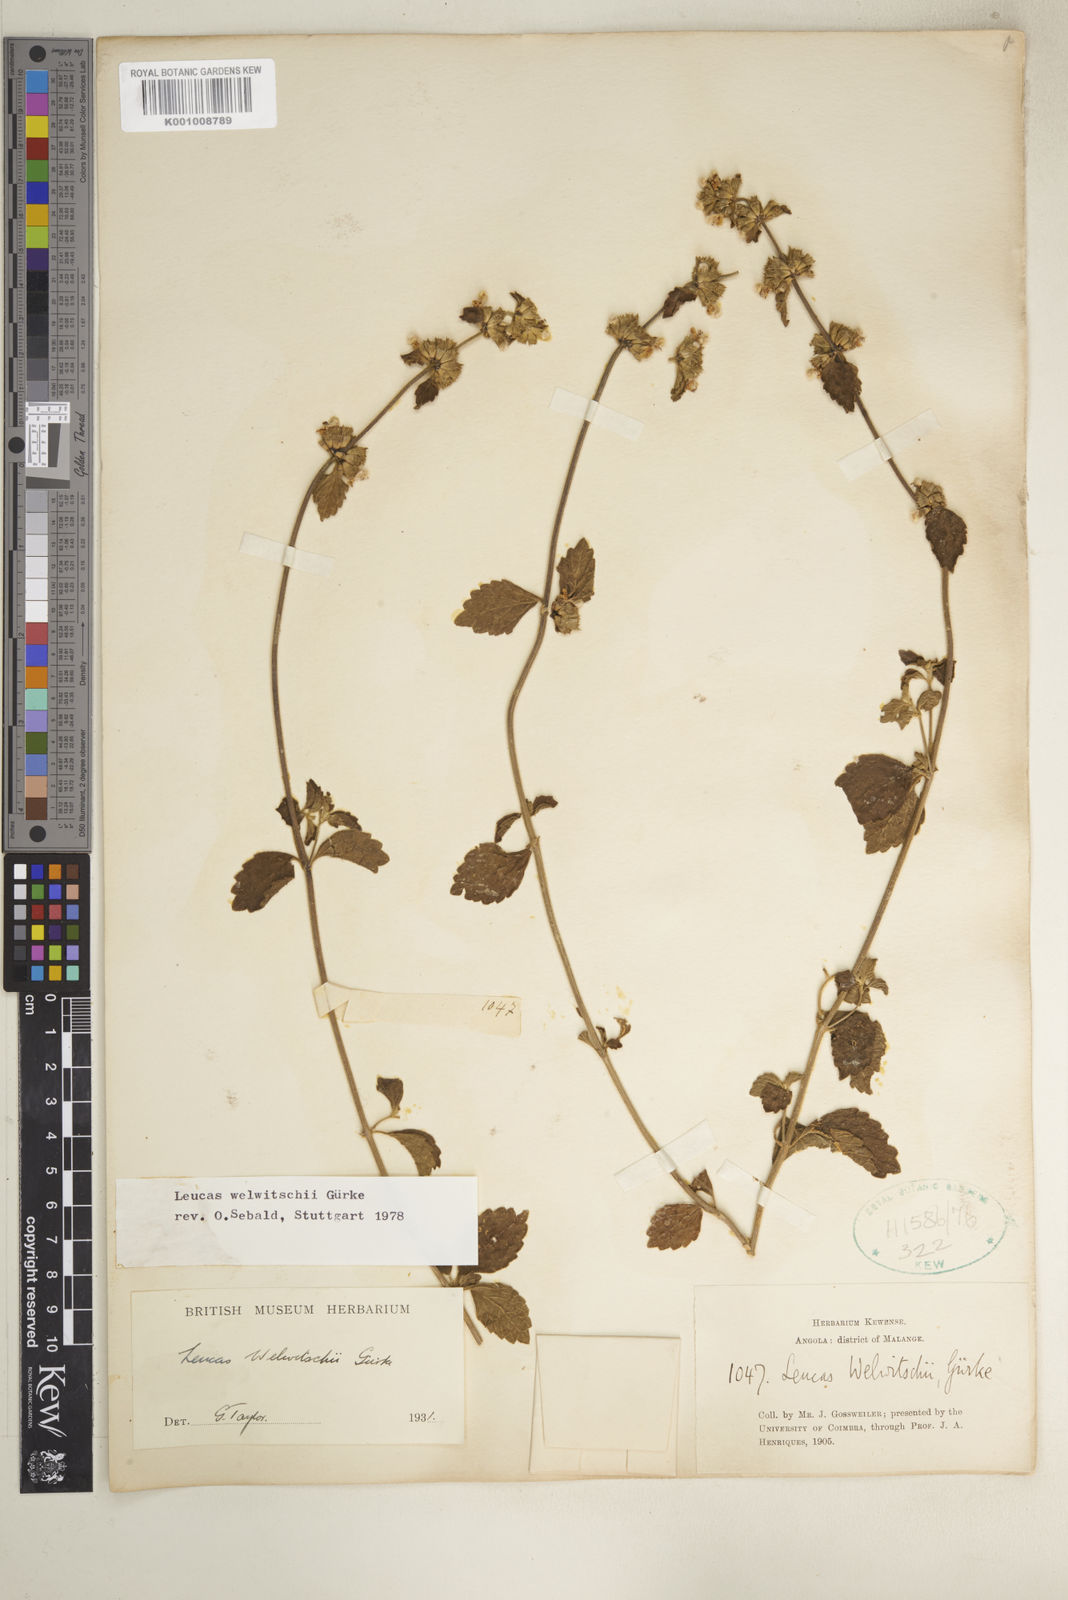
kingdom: Plantae
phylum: Tracheophyta
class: Magnoliopsida
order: Lamiales
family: Lamiaceae
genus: Leucas
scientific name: Leucas
